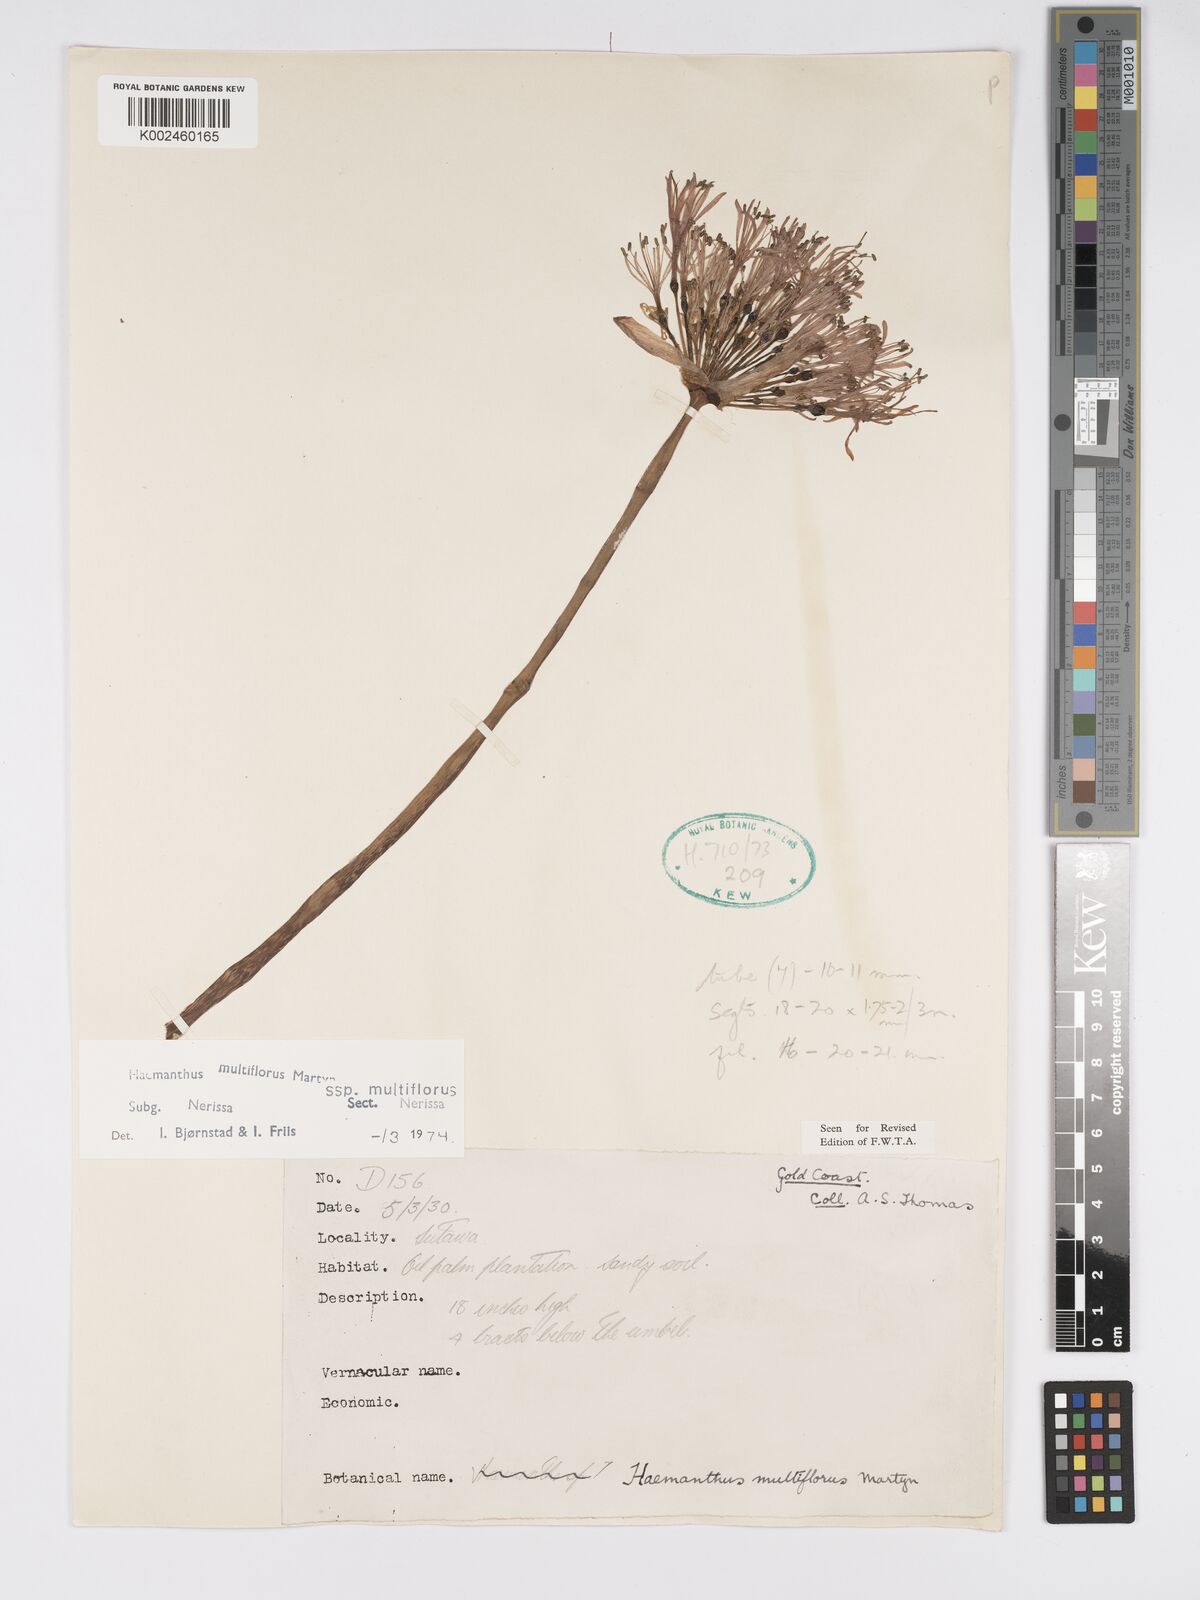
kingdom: Plantae
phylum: Tracheophyta
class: Liliopsida
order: Asparagales
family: Amaryllidaceae
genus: Scadoxus
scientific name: Scadoxus multiflorus
